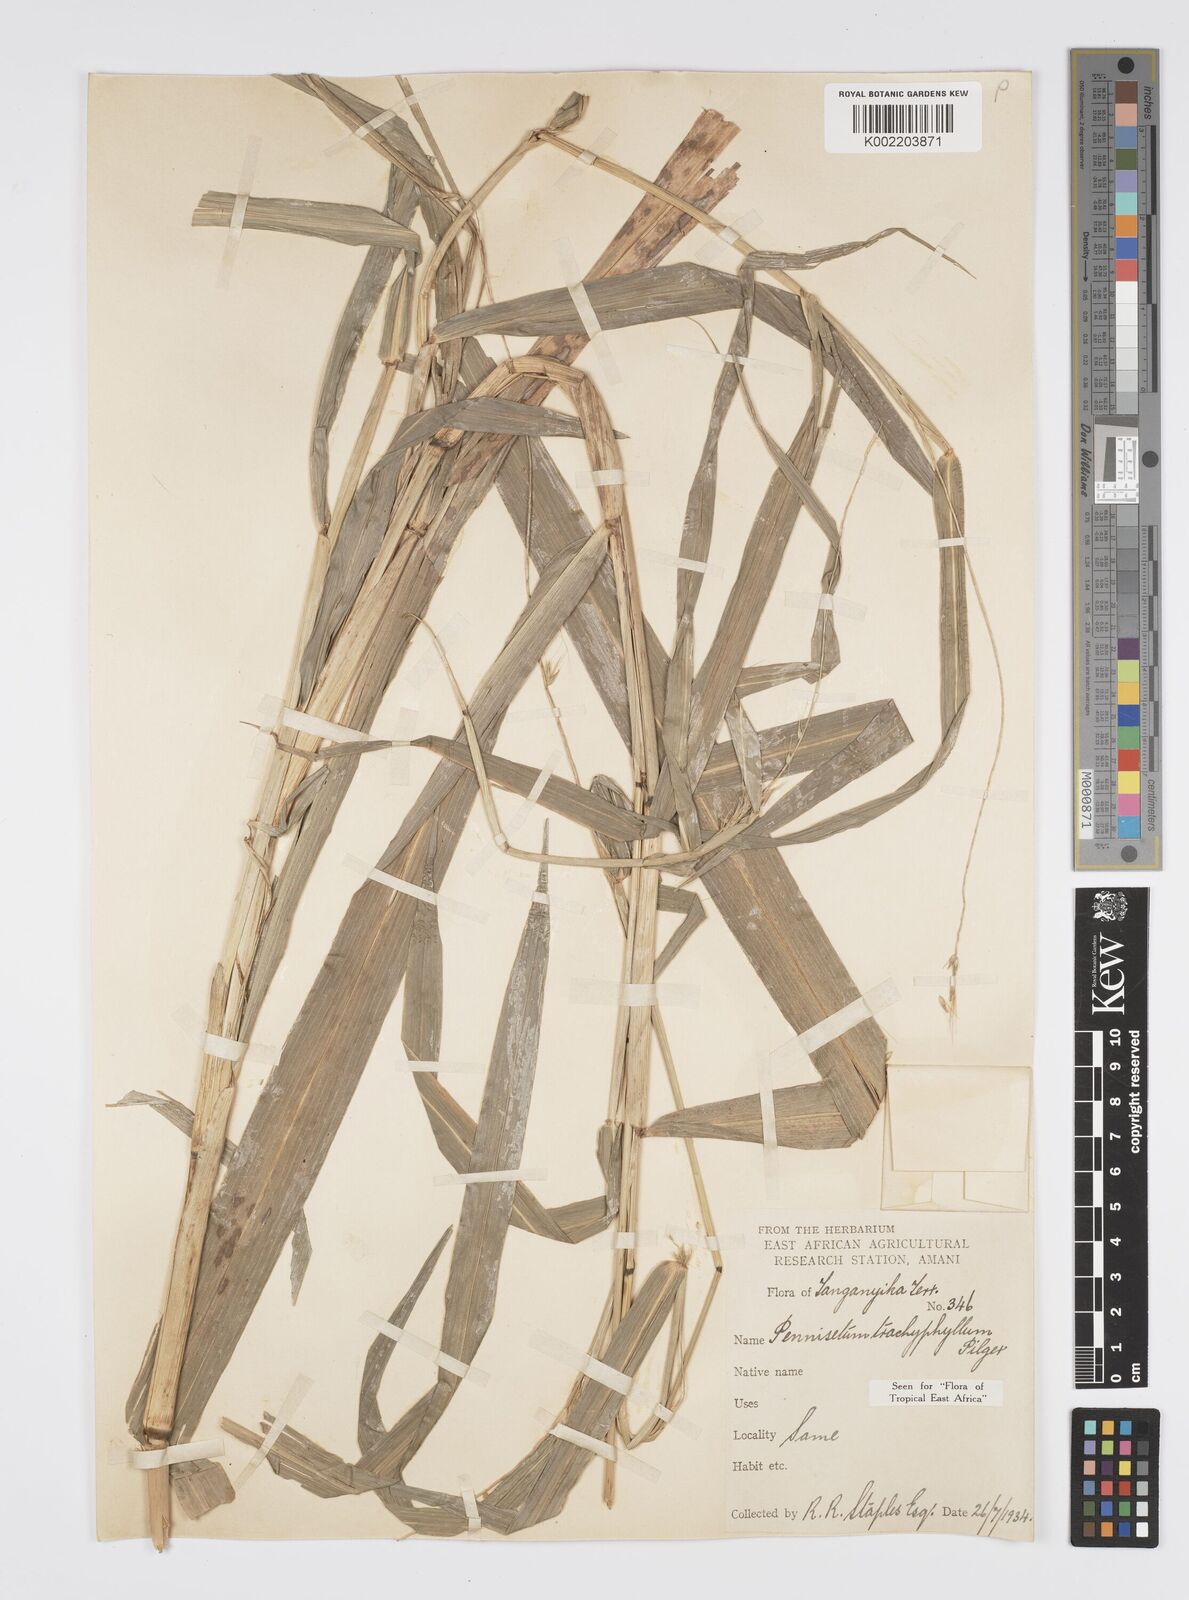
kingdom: Plantae
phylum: Tracheophyta
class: Liliopsida
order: Poales
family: Poaceae
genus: Cenchrus
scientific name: Cenchrus trachyphyllus
